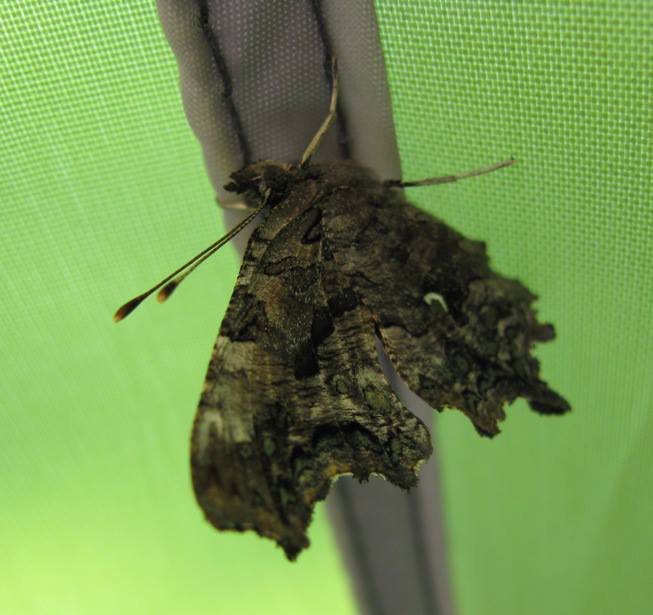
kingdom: Animalia
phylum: Arthropoda
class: Insecta
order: Lepidoptera
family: Nymphalidae
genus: Polygonia
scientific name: Polygonia faunus
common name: Green Comma
